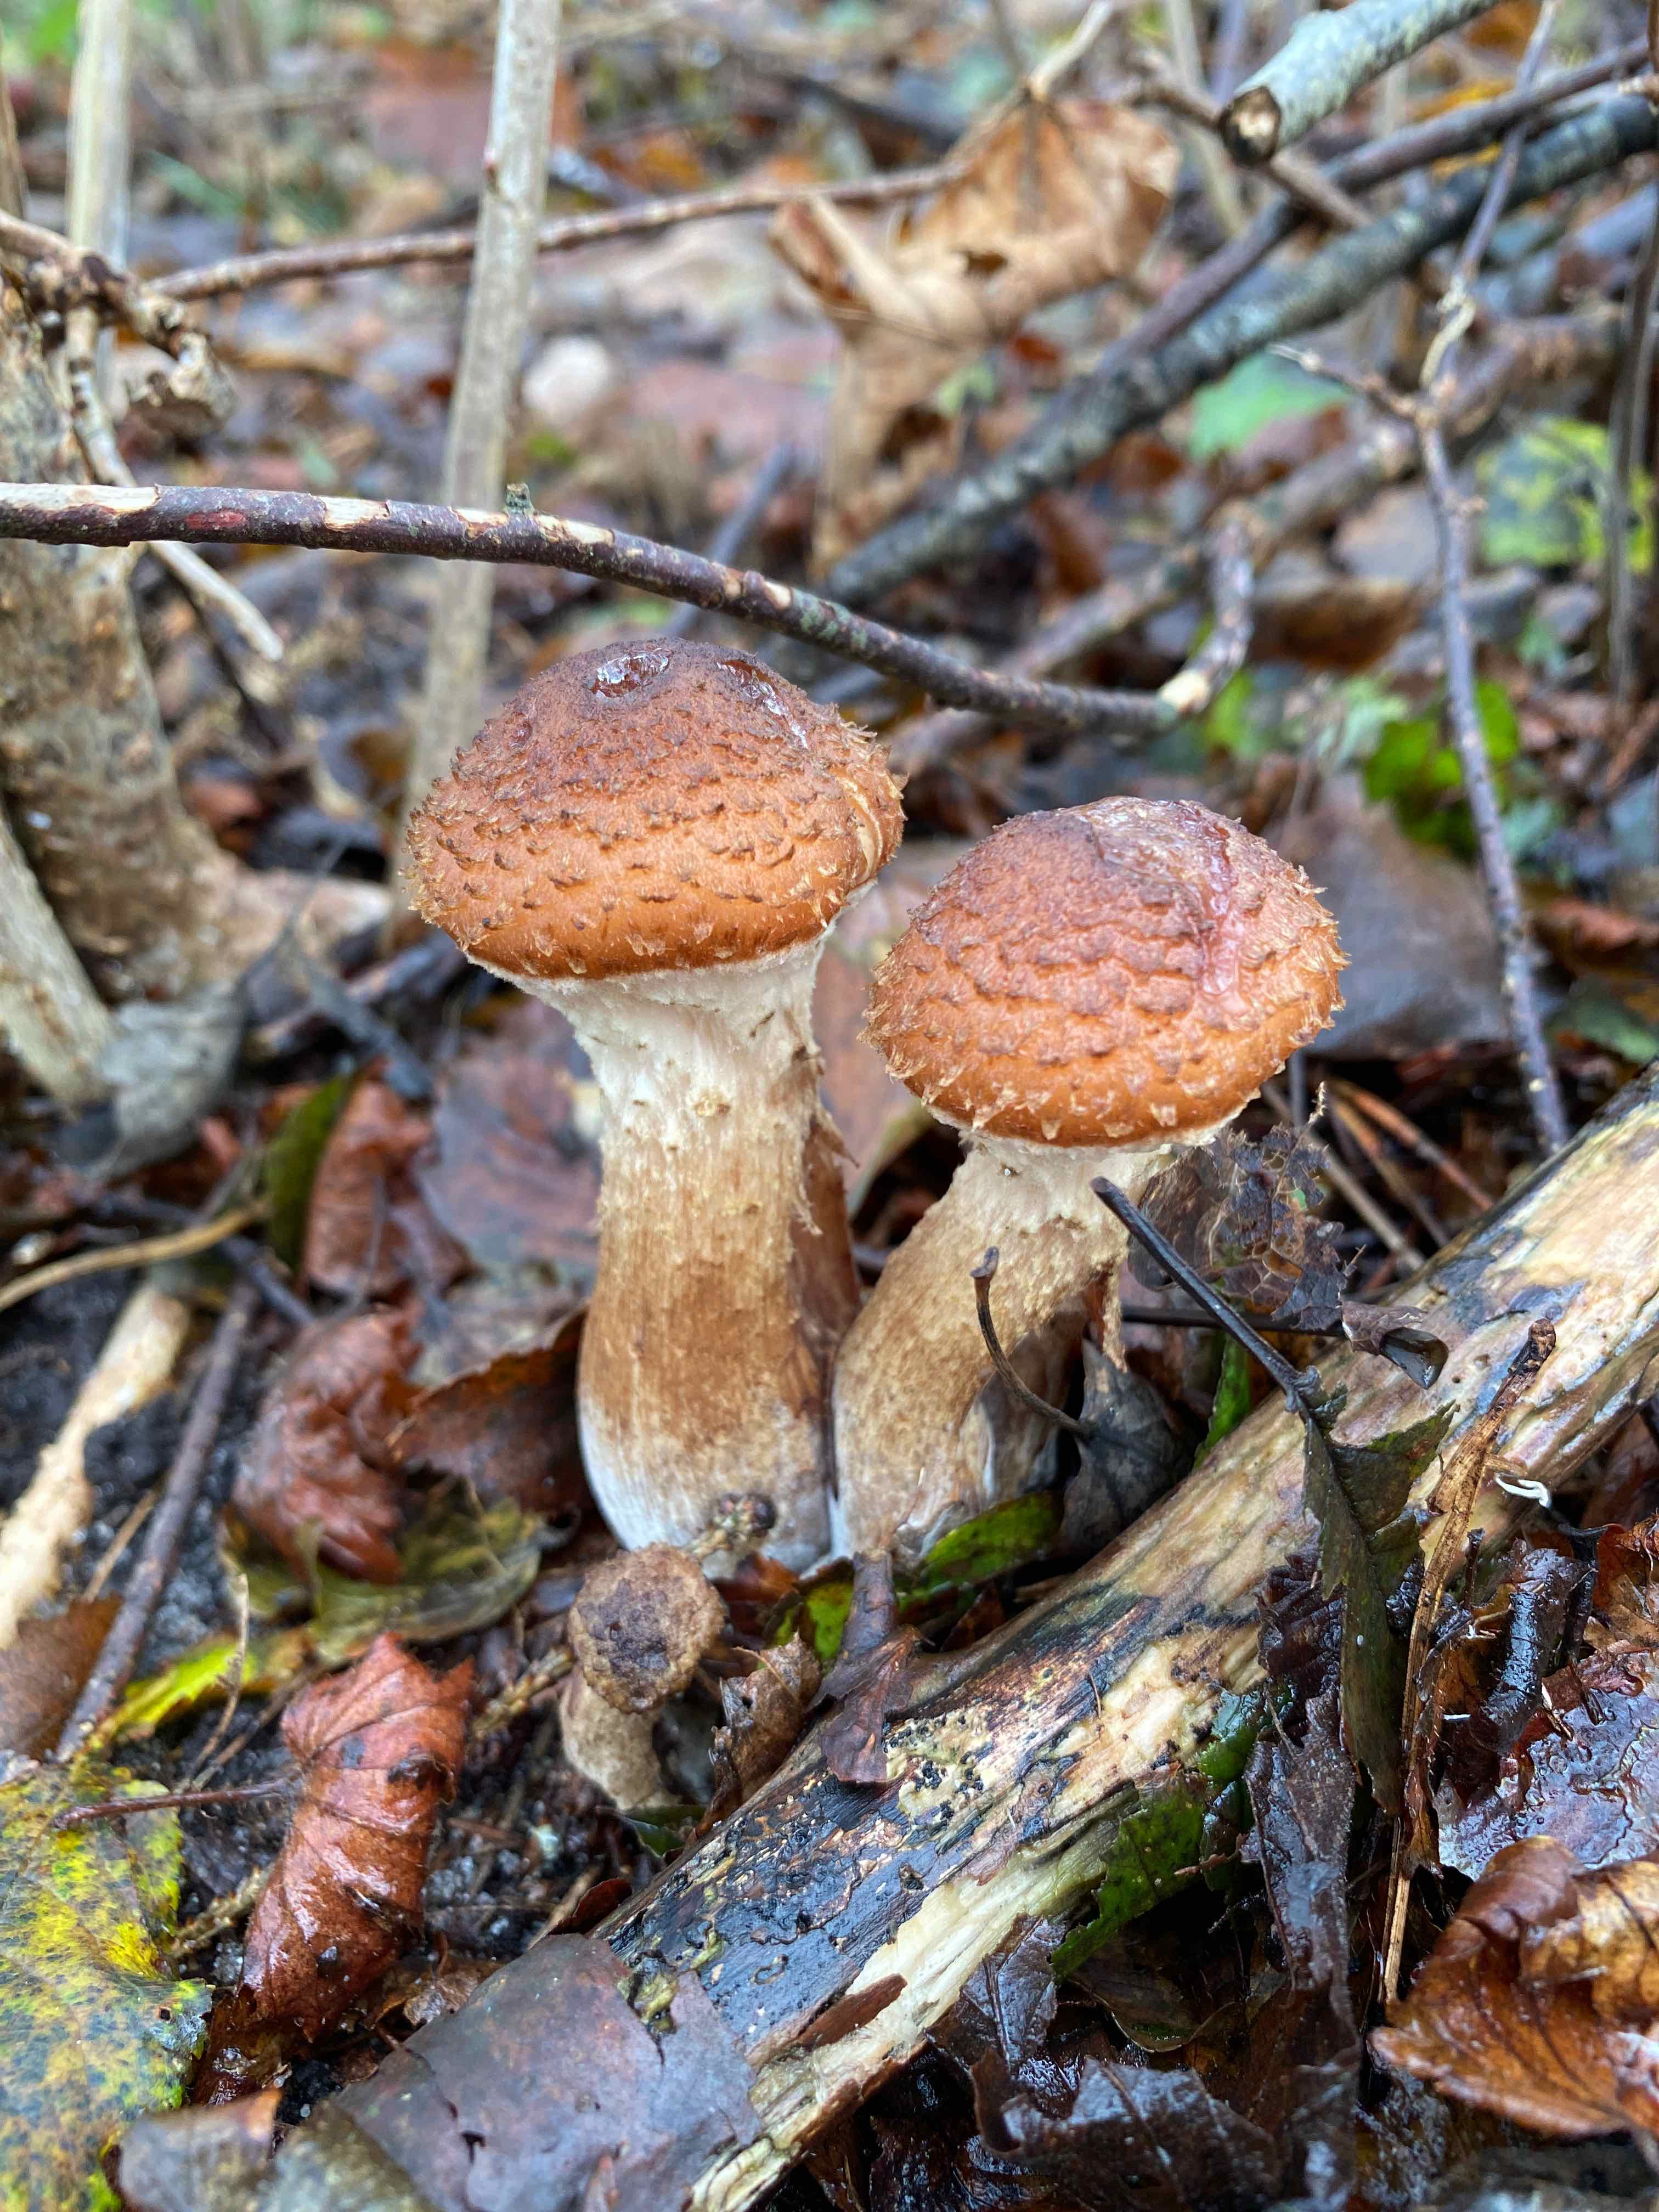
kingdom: Fungi
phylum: Basidiomycota
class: Agaricomycetes
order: Agaricales
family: Physalacriaceae
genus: Armillaria
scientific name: Armillaria
